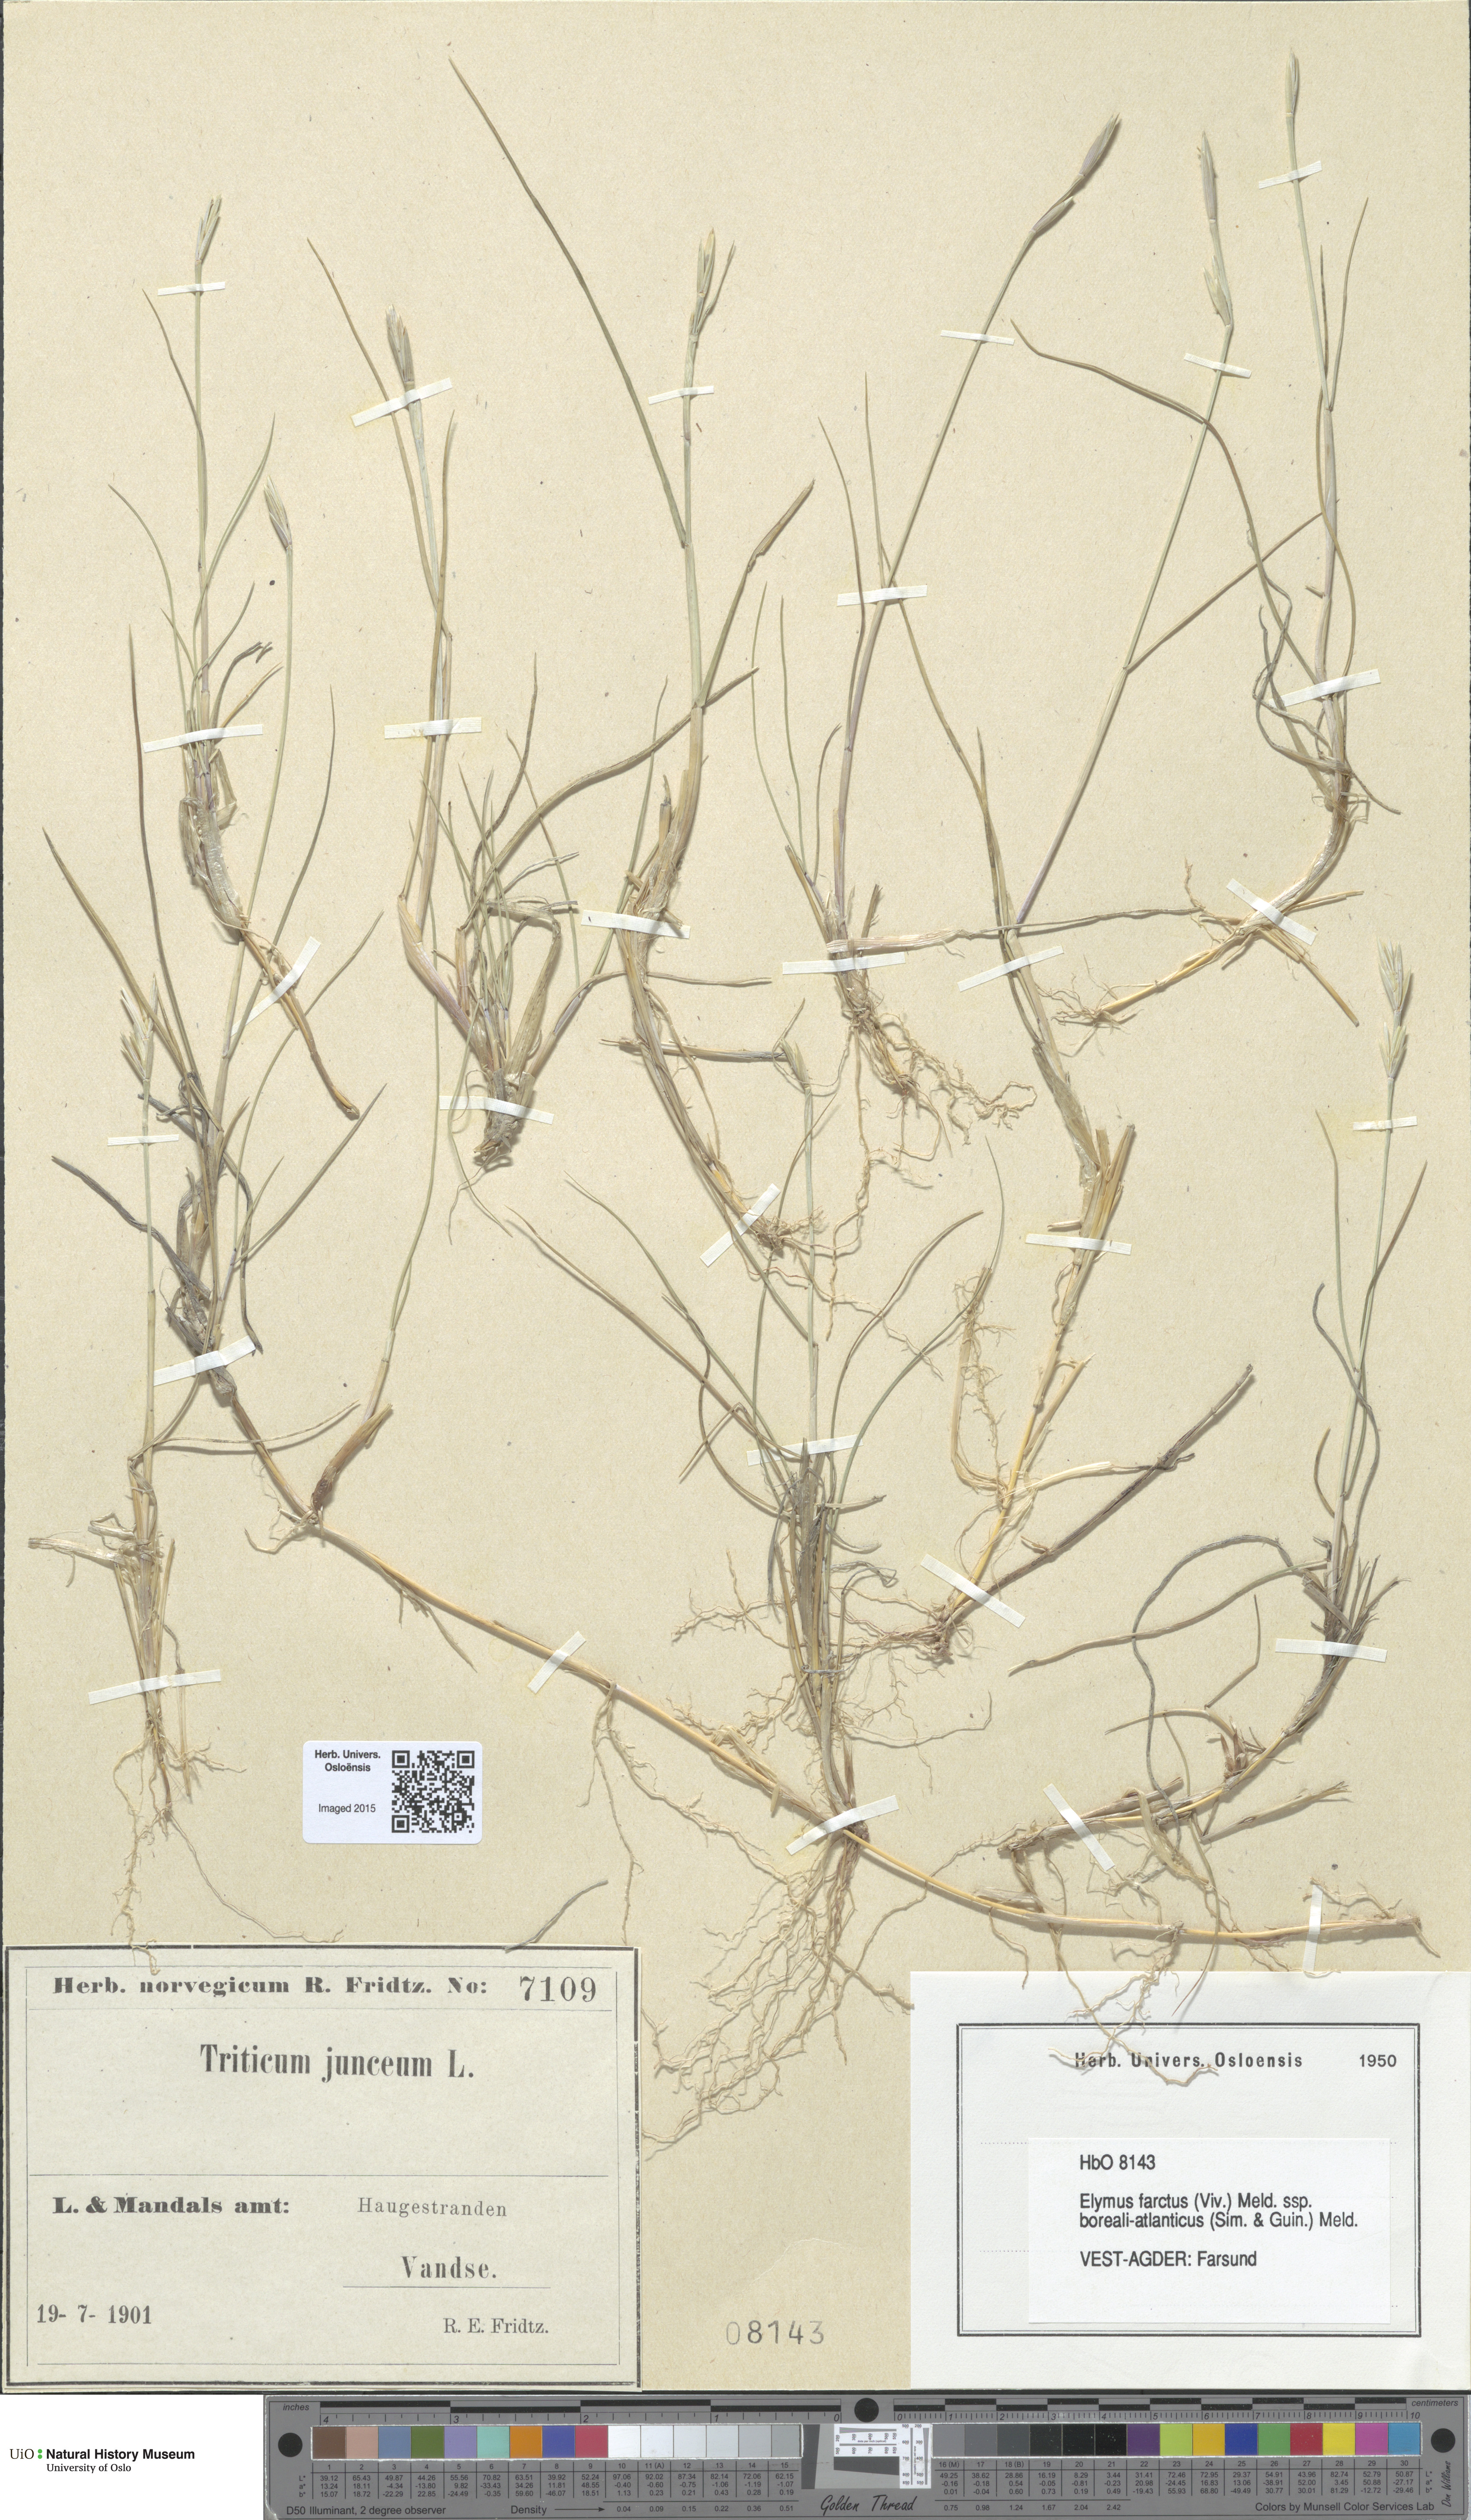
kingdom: Plantae
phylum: Tracheophyta
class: Liliopsida
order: Poales
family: Poaceae
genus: Thinopyrum
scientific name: Thinopyrum junceiforme
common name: Sea couch
